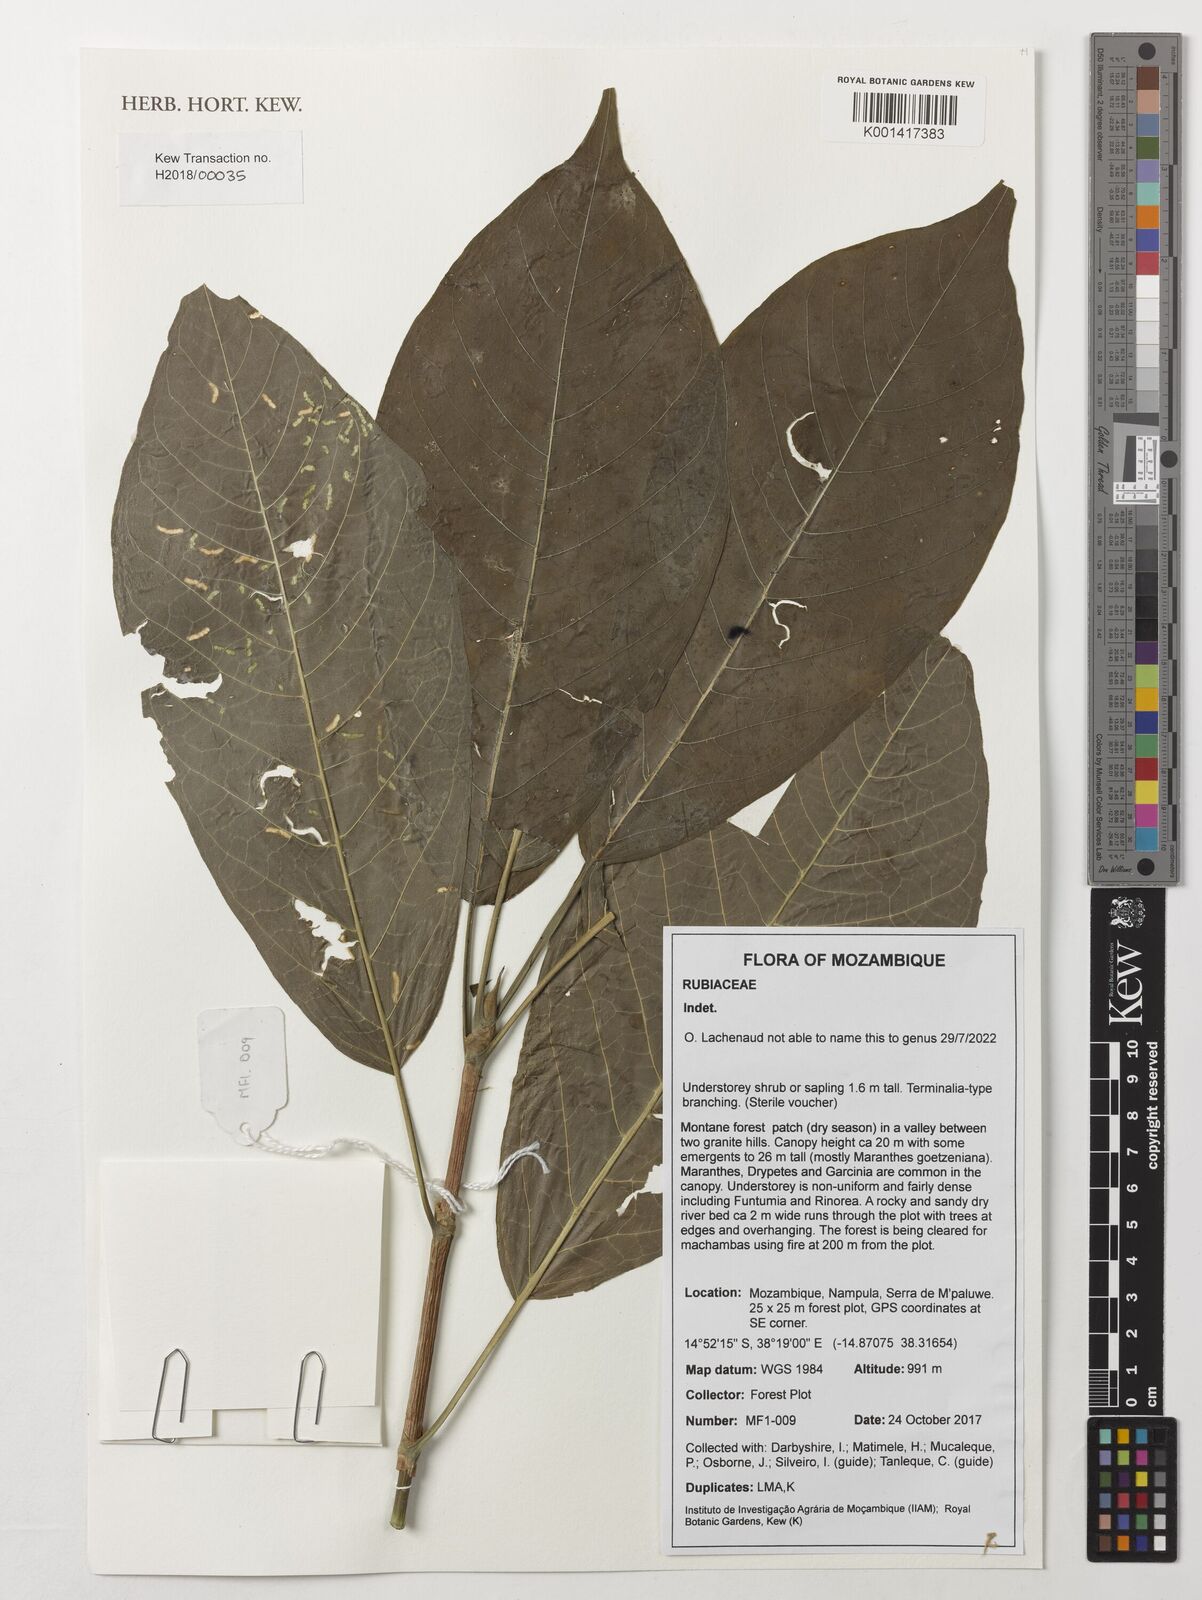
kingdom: Plantae
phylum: Tracheophyta
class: Magnoliopsida
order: Gentianales
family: Rubiaceae
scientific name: Rubiaceae
